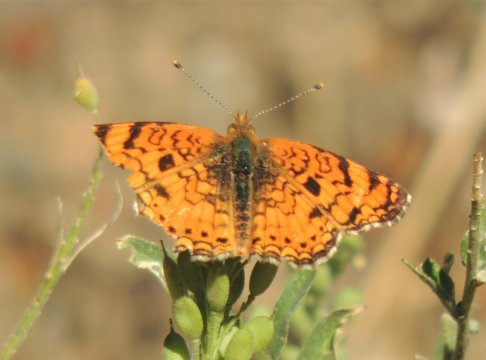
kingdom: Animalia
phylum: Arthropoda
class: Insecta
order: Lepidoptera
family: Nymphalidae
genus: Phyciodes
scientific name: Phyciodes pallida
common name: Pale Crescent
